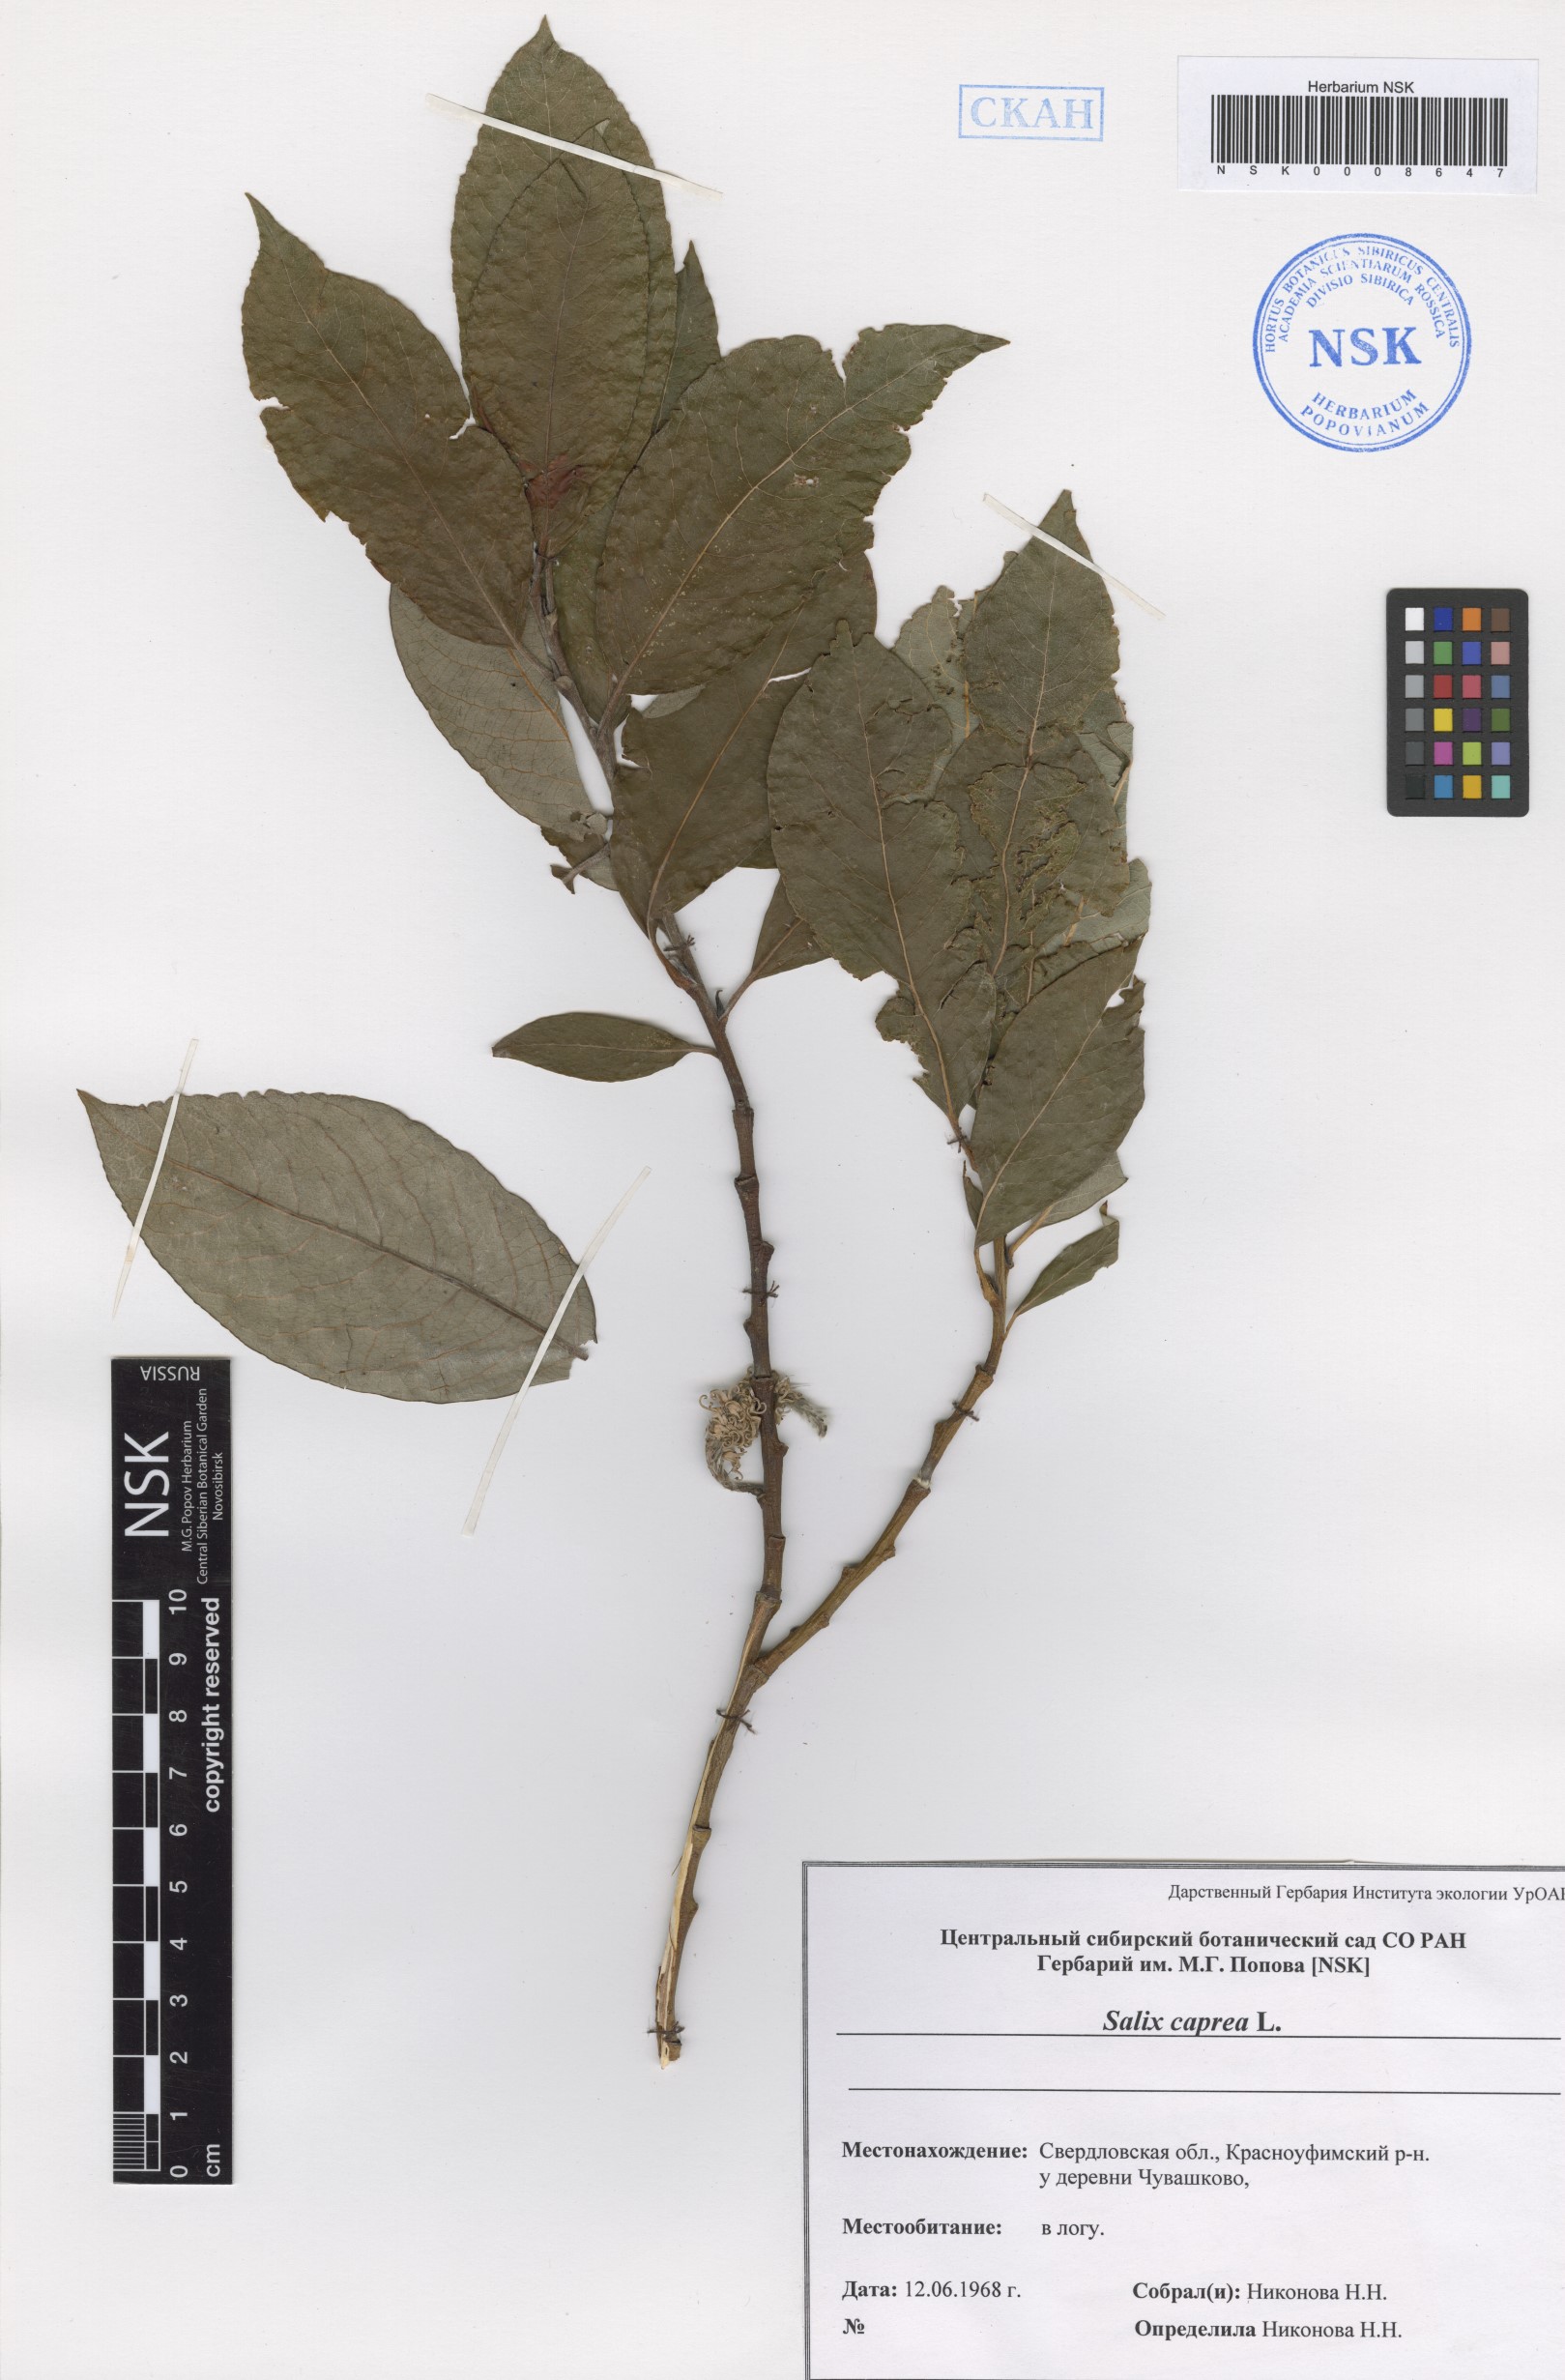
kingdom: Plantae
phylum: Tracheophyta
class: Magnoliopsida
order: Malpighiales
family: Salicaceae
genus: Salix
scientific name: Salix caprea
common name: Goat willow
